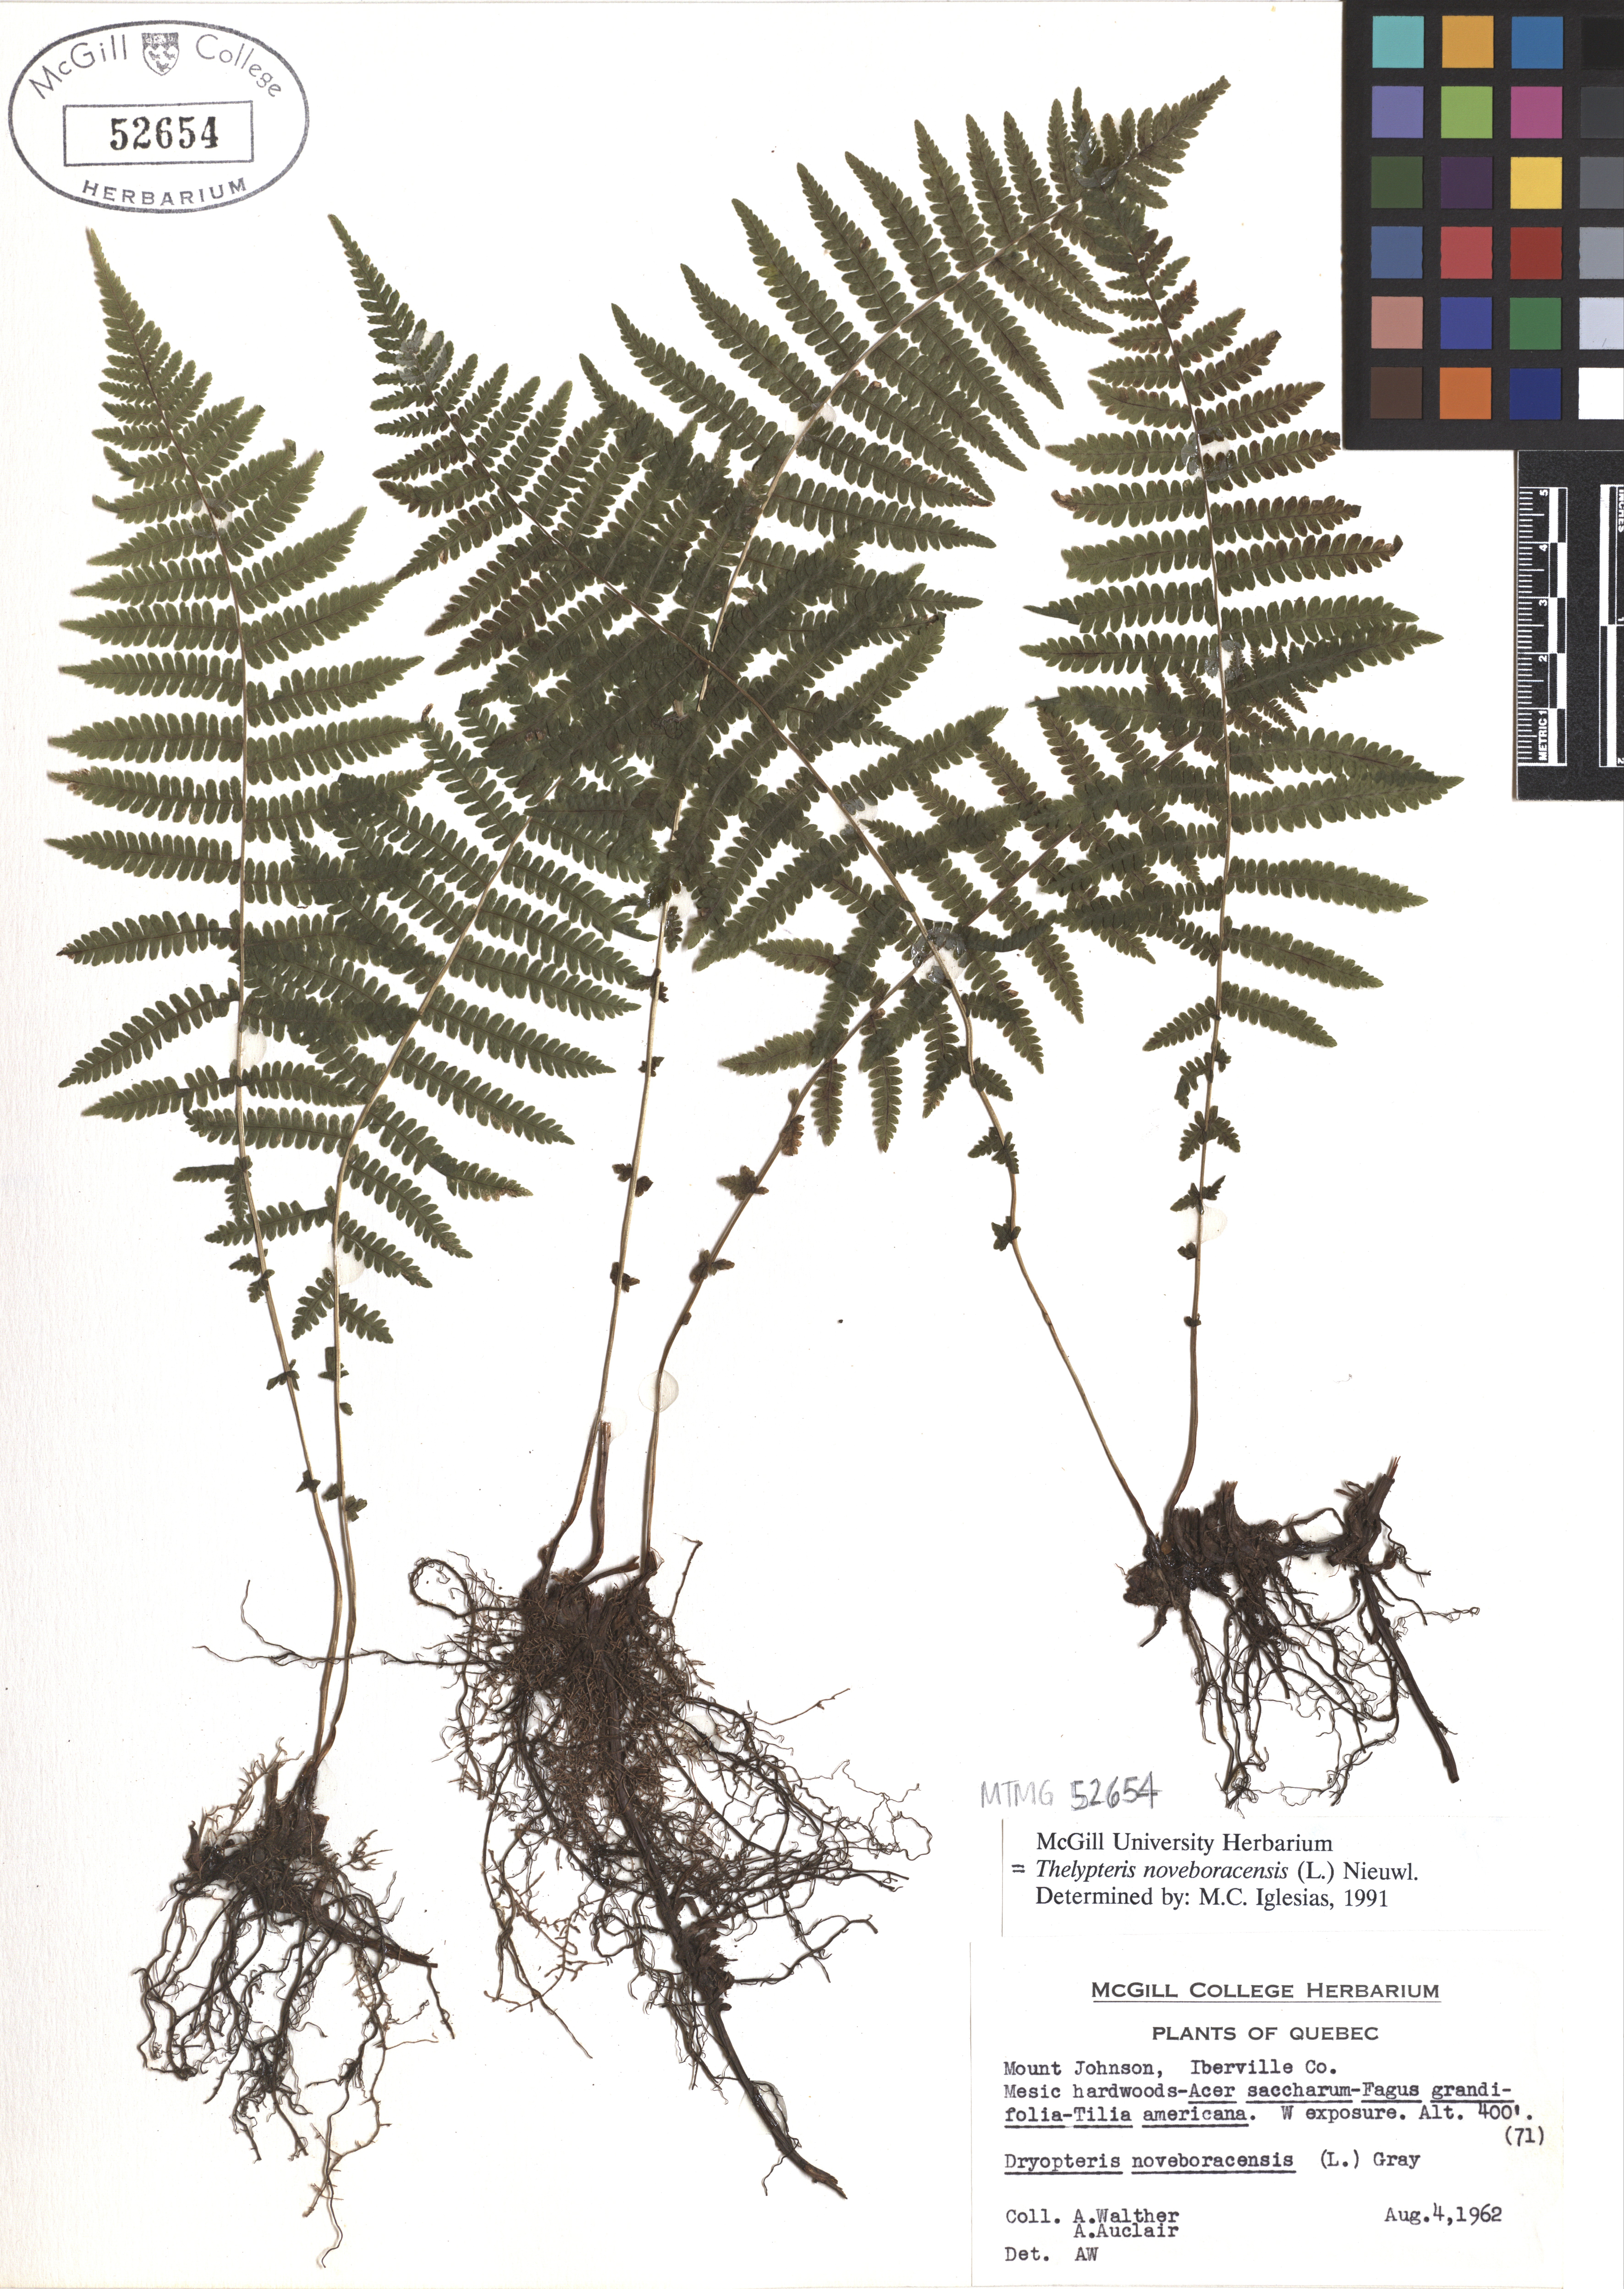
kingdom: Plantae
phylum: Tracheophyta
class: Polypodiopsida
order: Polypodiales
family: Thelypteridaceae
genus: Amauropelta
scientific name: Amauropelta noveboracensis
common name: New york fern
